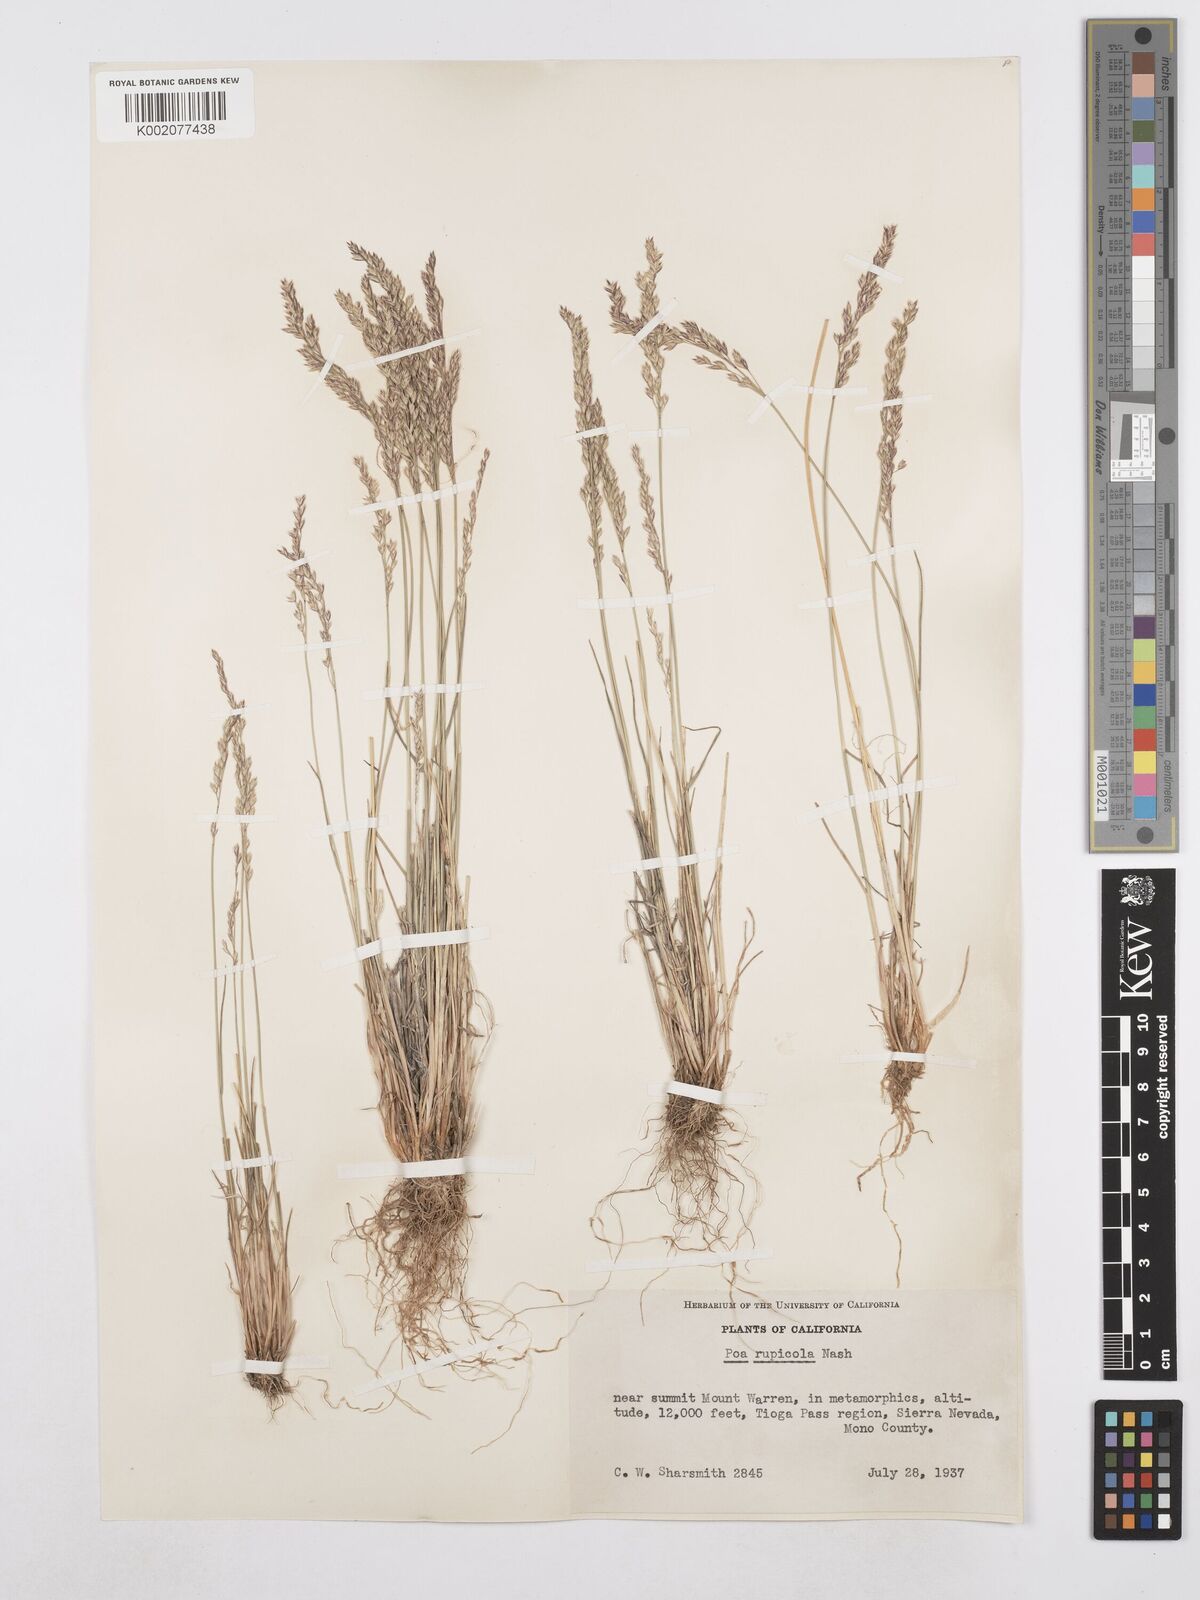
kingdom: Plantae
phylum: Tracheophyta
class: Liliopsida
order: Poales
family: Poaceae
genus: Poa
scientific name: Poa glauca
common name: Glaucous bluegrass
